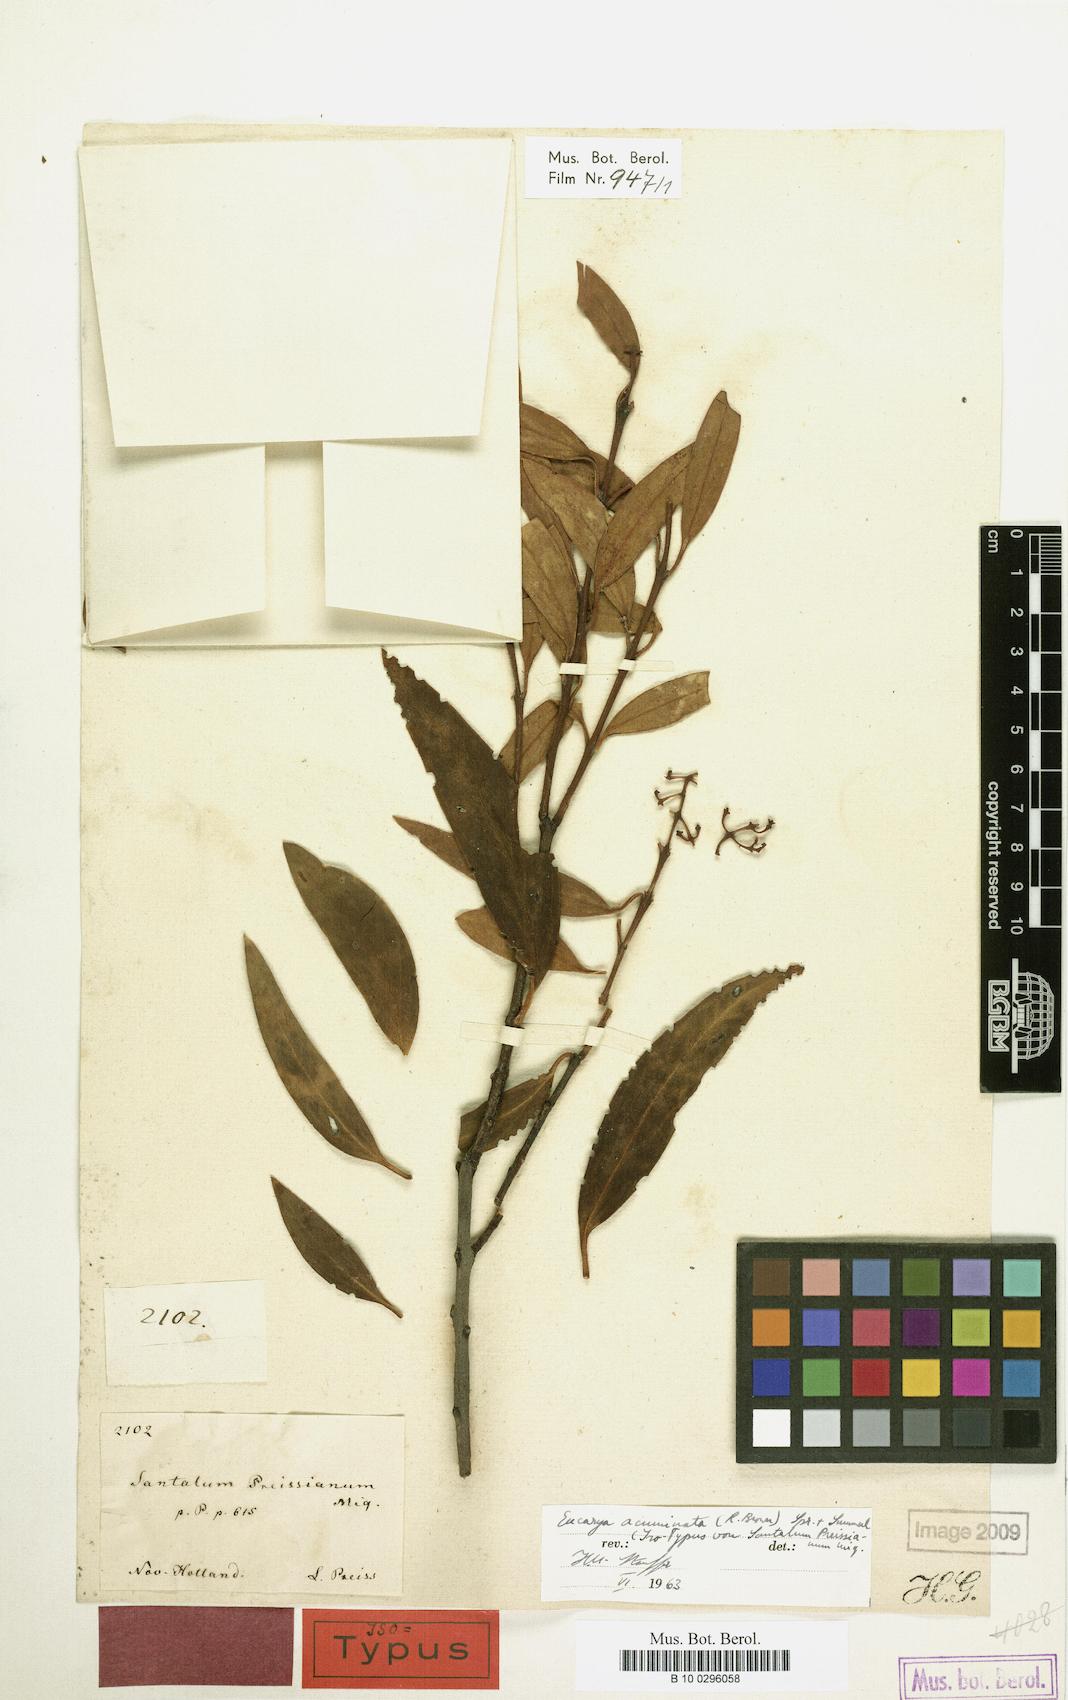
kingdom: Plantae
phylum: Tracheophyta
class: Magnoliopsida
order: Santalales
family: Santalaceae
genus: Santalum
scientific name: Santalum acuminatum
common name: Sweet quandong
